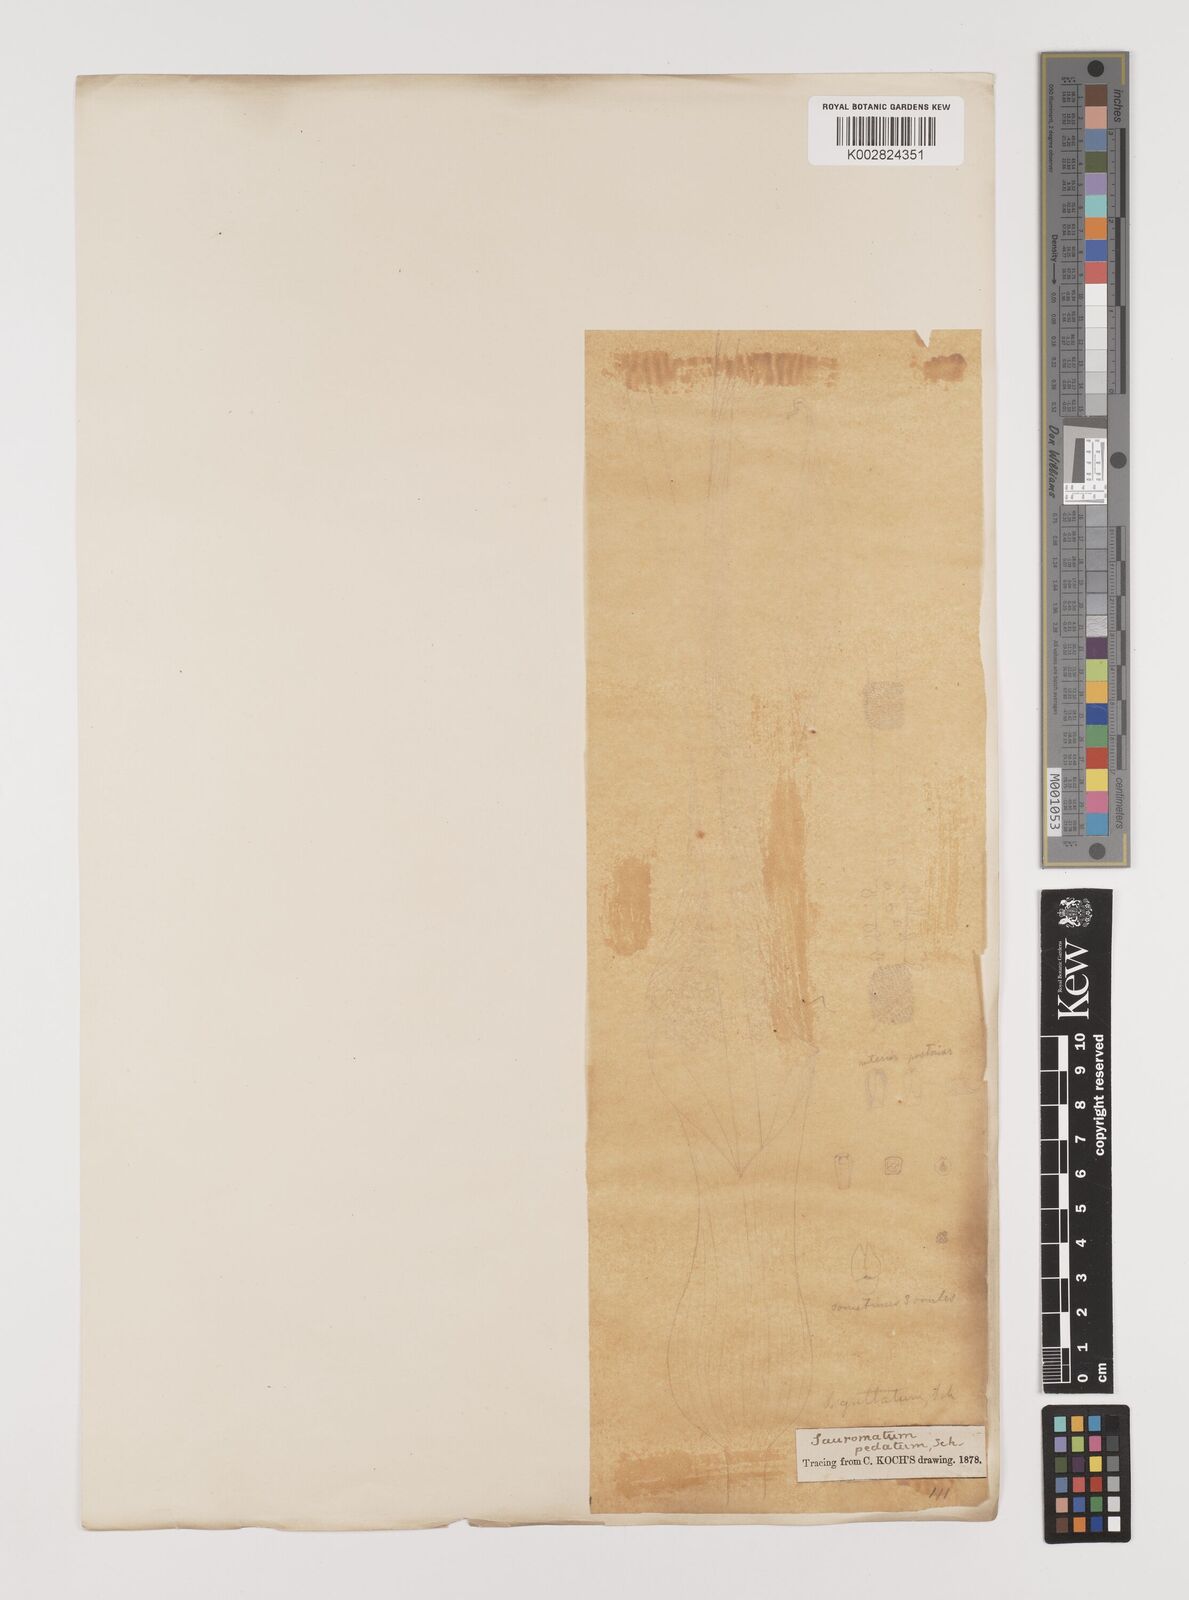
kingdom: Plantae
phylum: Tracheophyta
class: Liliopsida
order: Alismatales
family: Araceae
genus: Sauromatum
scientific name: Sauromatum venosum
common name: Voodoo lily
